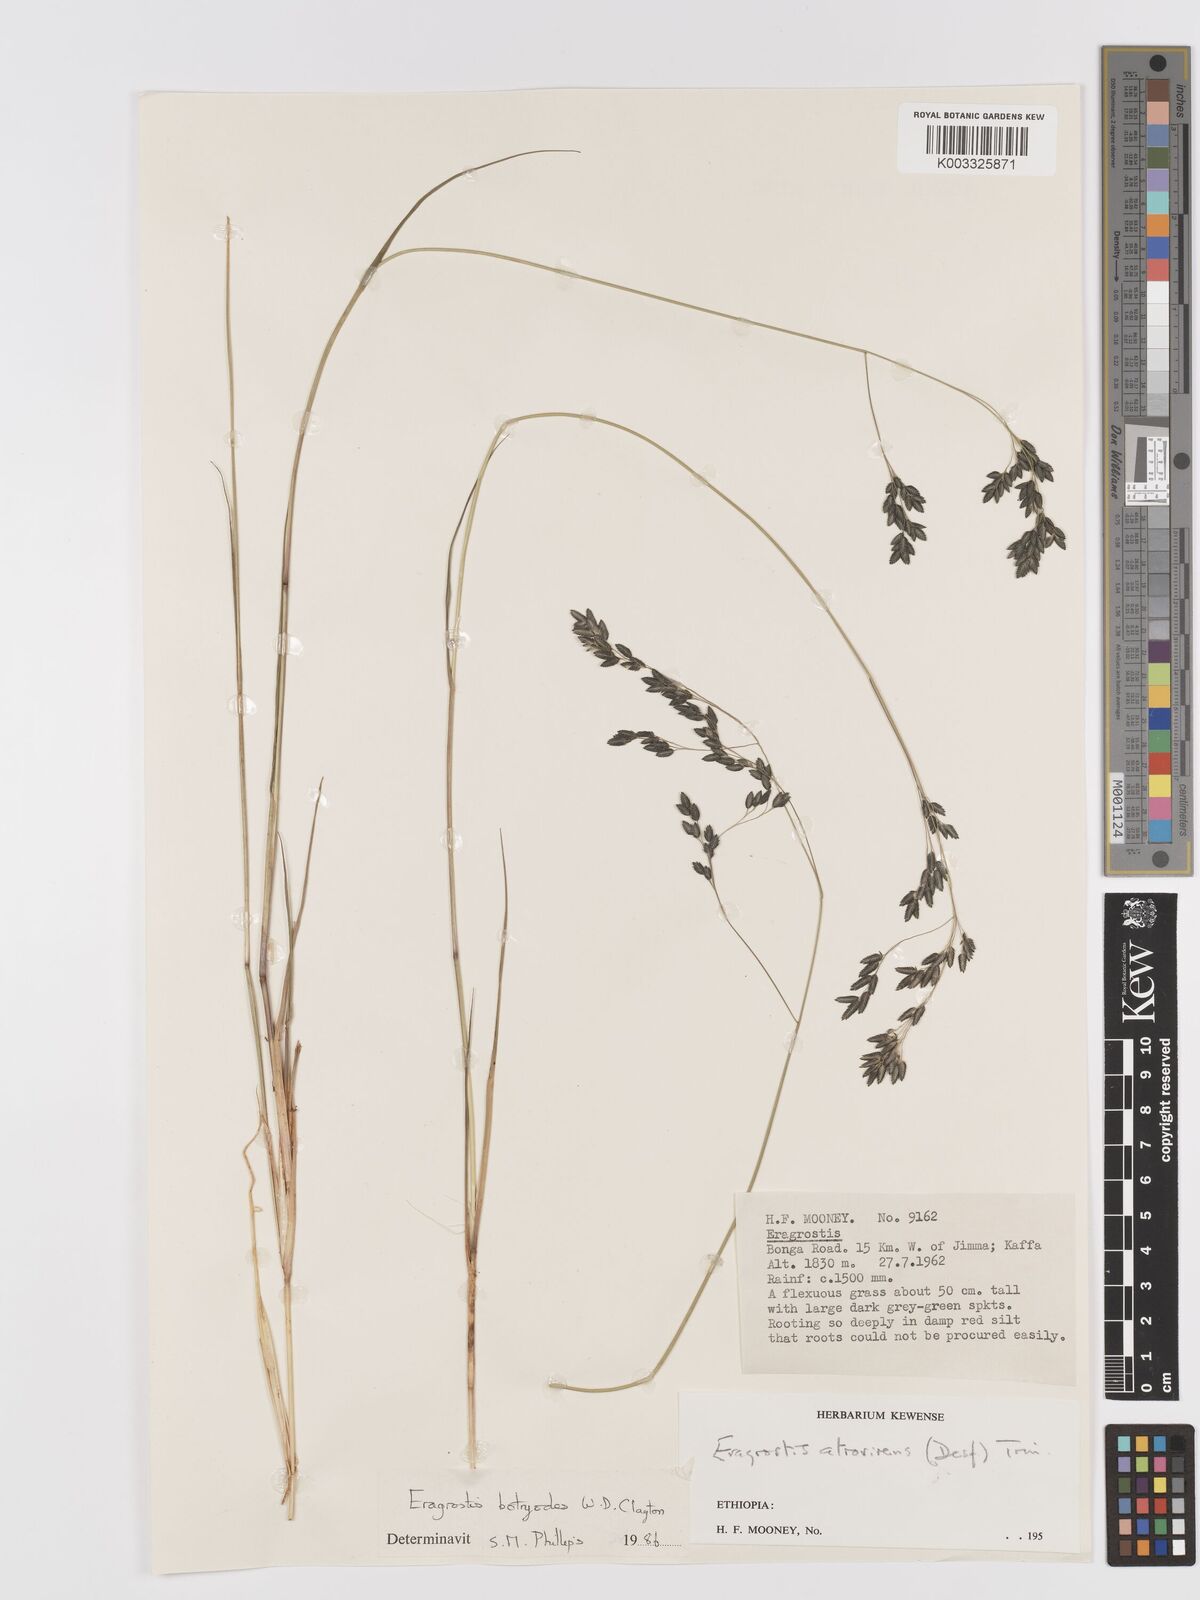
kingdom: Plantae
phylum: Tracheophyta
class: Liliopsida
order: Poales
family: Poaceae
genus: Eragrostis
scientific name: Eragrostis botryodes
